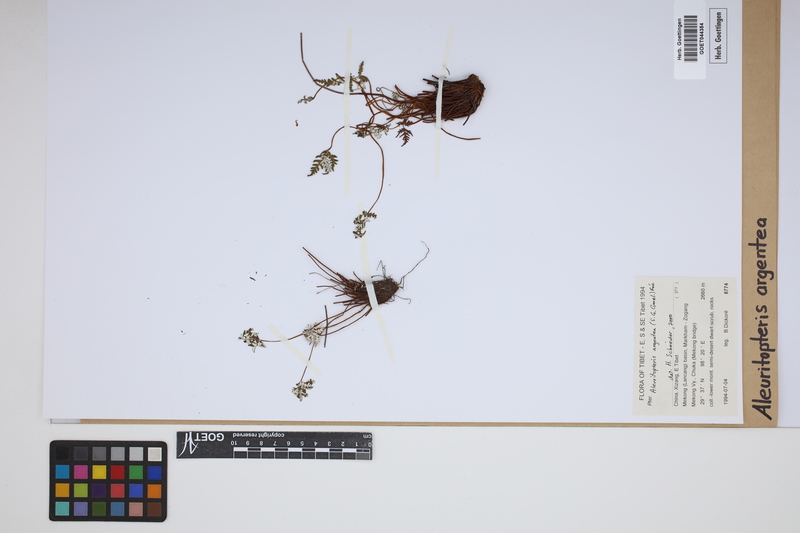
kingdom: Plantae
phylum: Tracheophyta
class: Polypodiopsida
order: Polypodiales
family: Pteridaceae
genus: Aleuritopteris
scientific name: Aleuritopteris argentea
